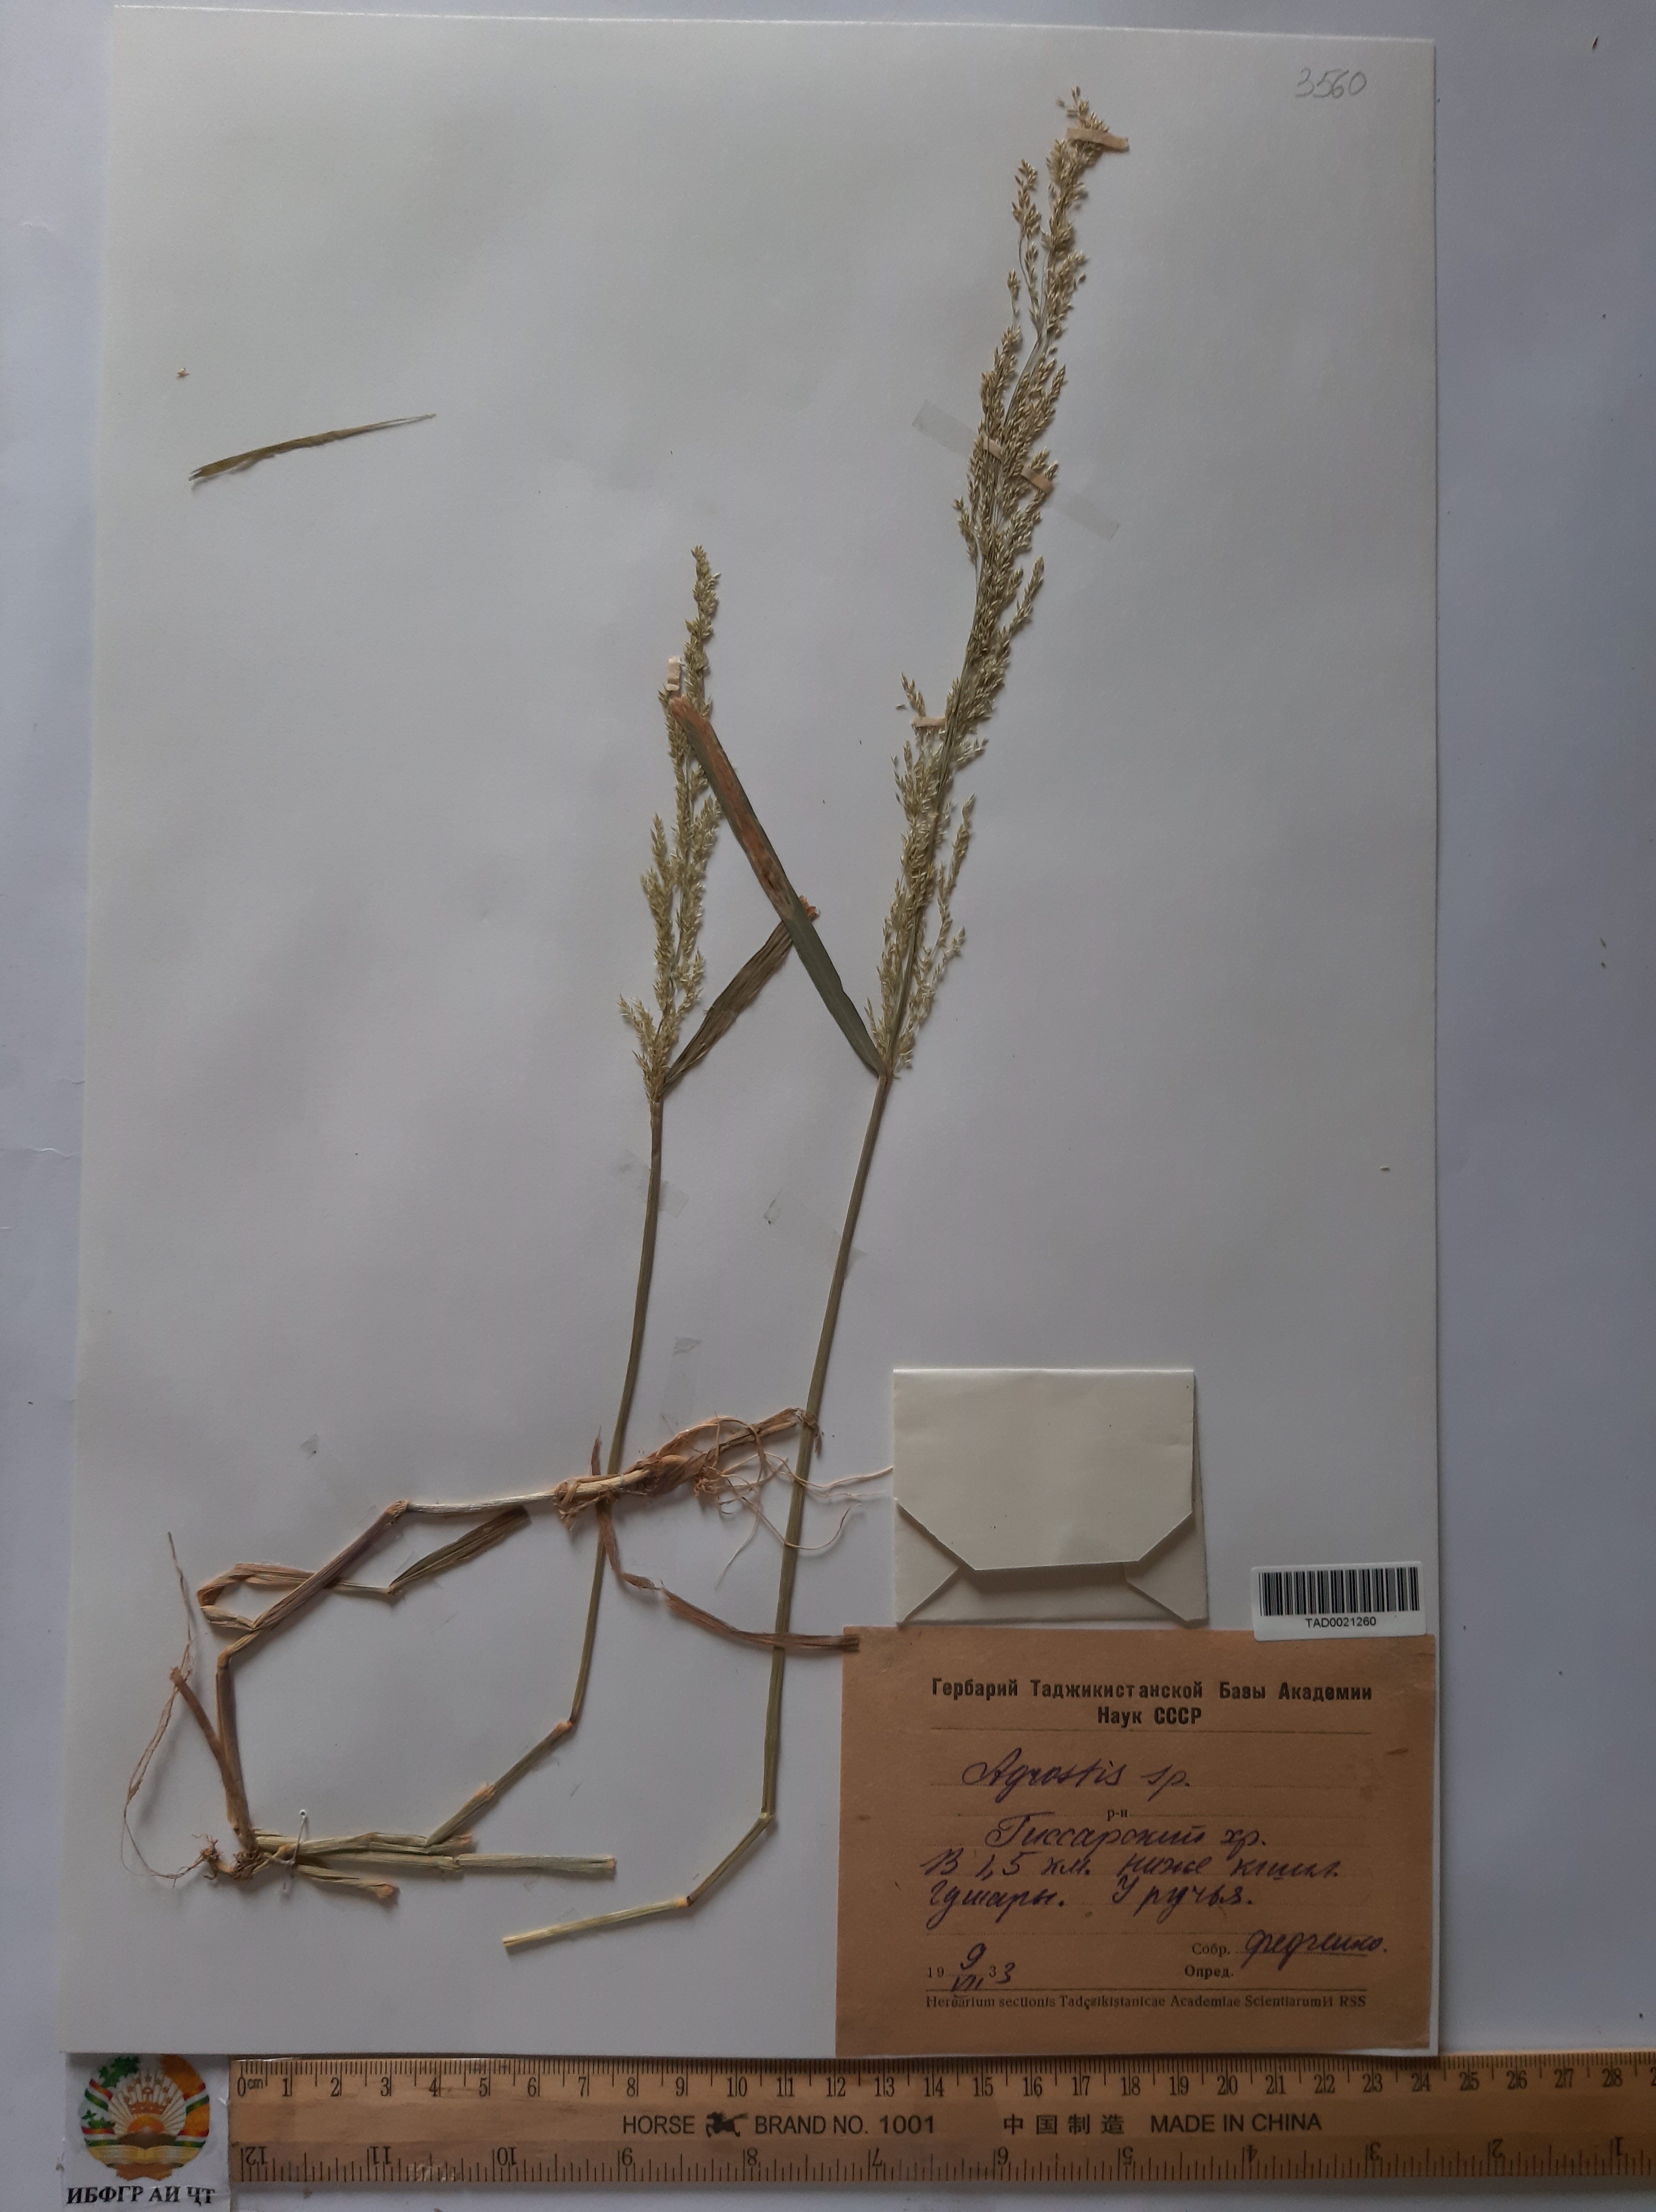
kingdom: Plantae
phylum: Tracheophyta
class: Liliopsida
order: Poales
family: Poaceae
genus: Agrostis
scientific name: Agrostis canina
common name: Velvet bent
